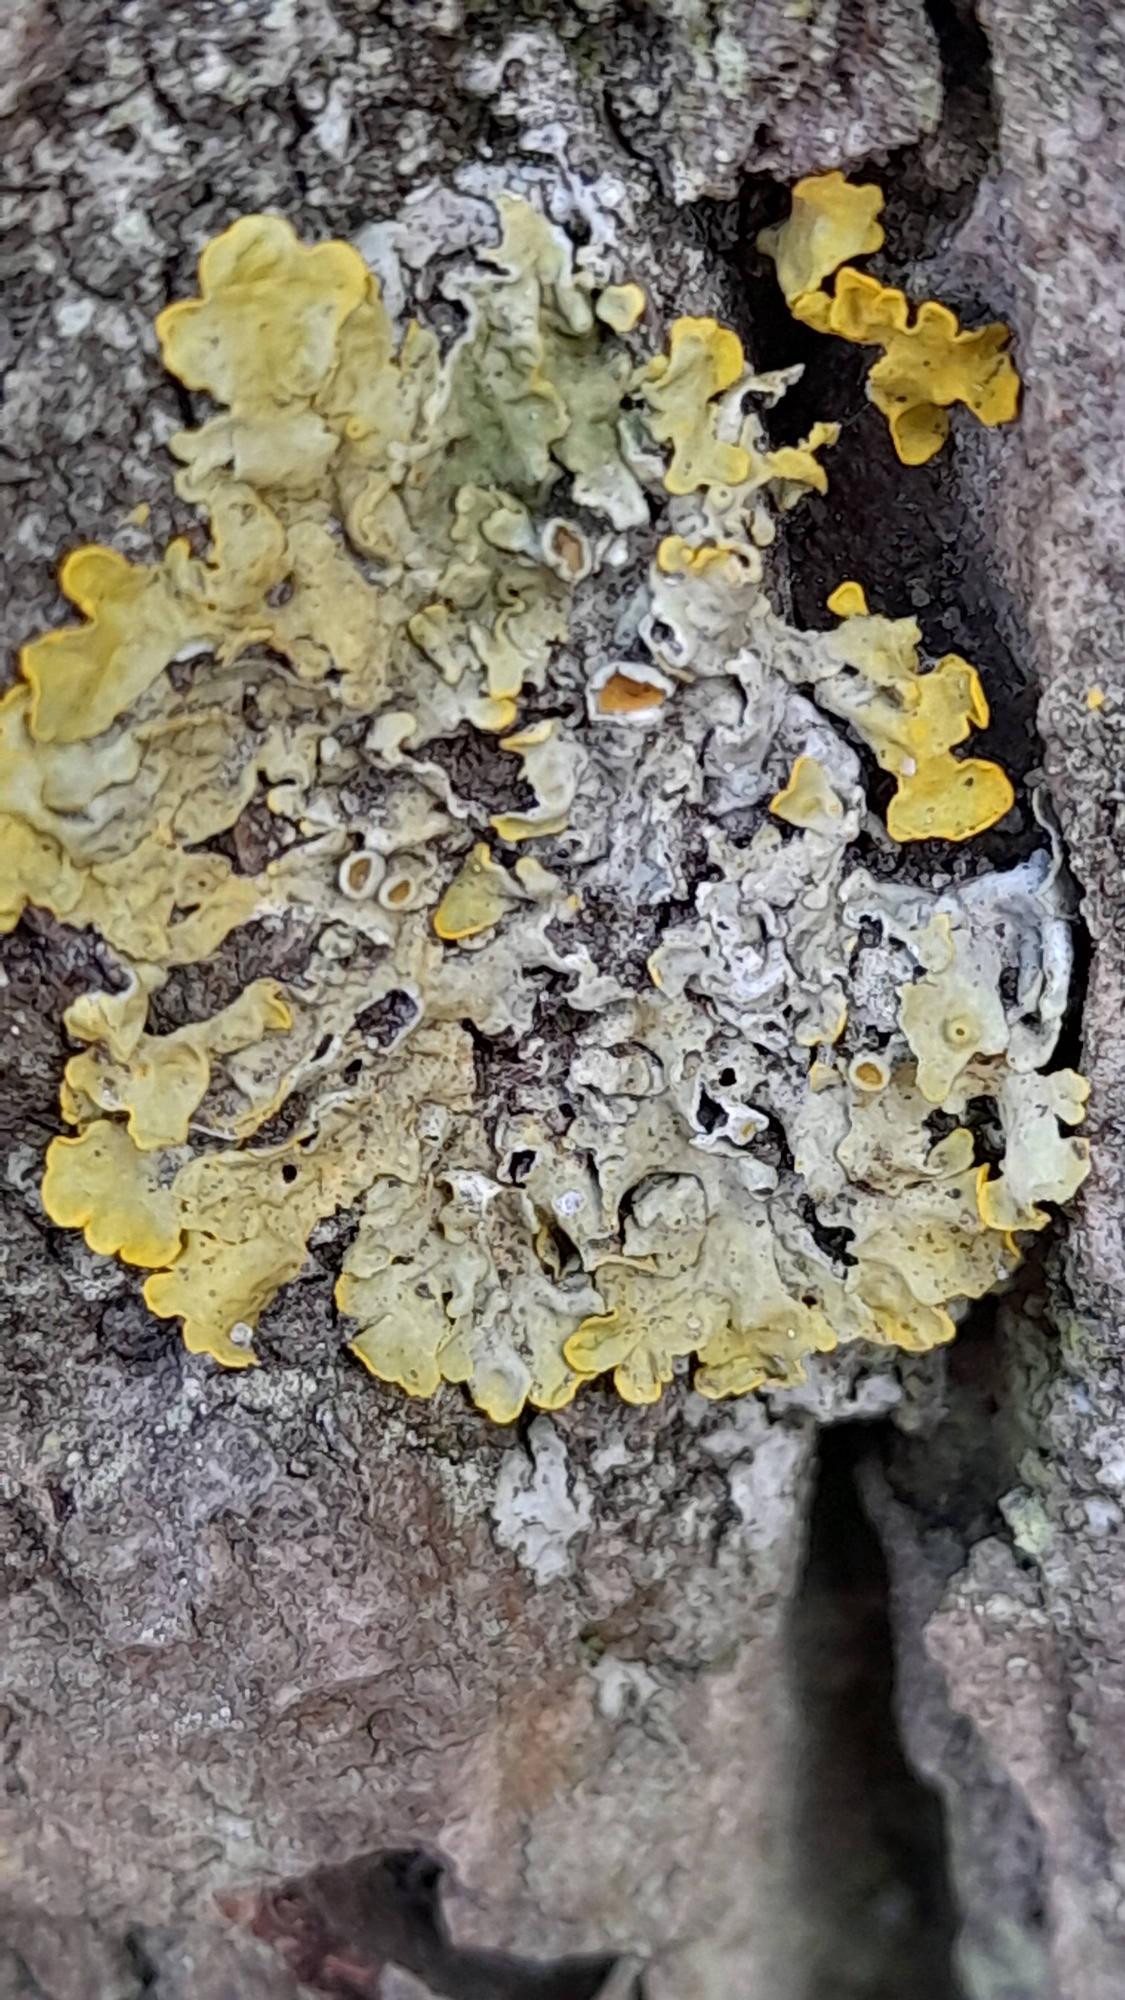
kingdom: Fungi
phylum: Ascomycota
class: Lecanoromycetes
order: Teloschistales
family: Teloschistaceae
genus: Xanthoria
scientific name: Xanthoria parietina
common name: Almindelig væggelav
